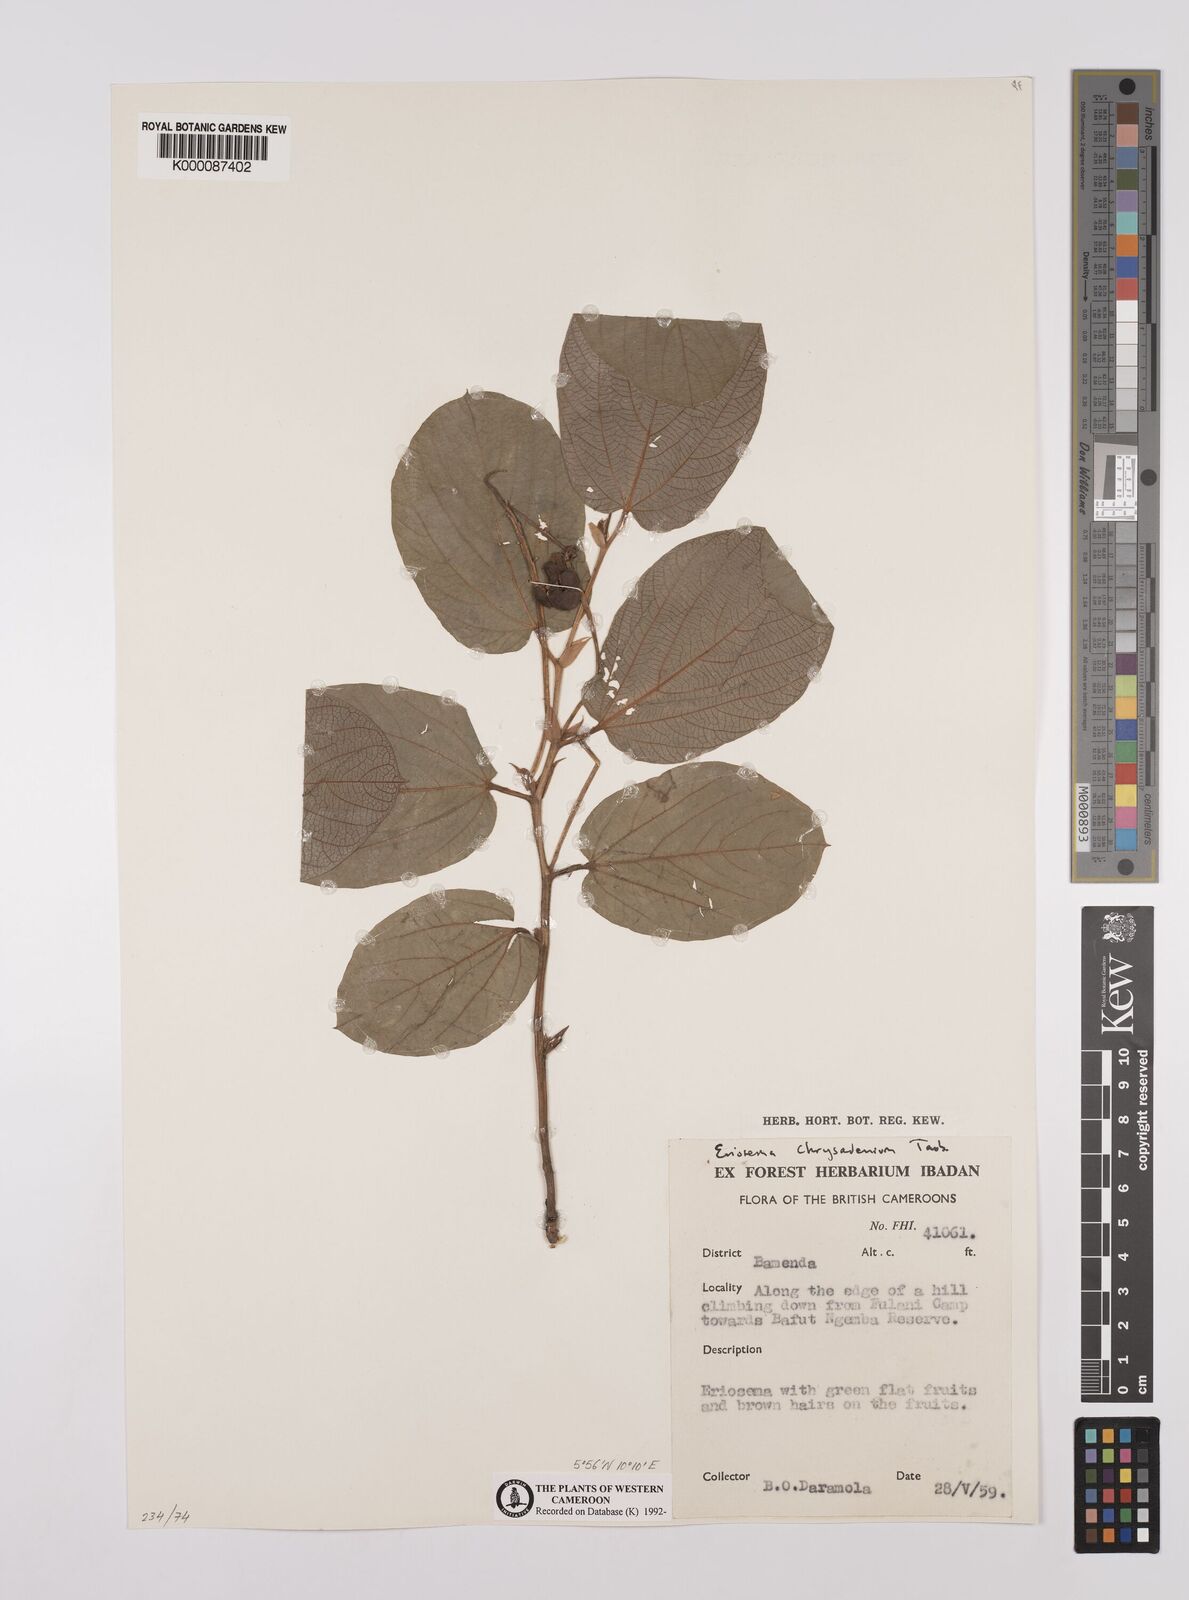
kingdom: Plantae
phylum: Tracheophyta
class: Magnoliopsida
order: Fabales
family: Fabaceae
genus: Eriosema
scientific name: Eriosema chrysadenium
